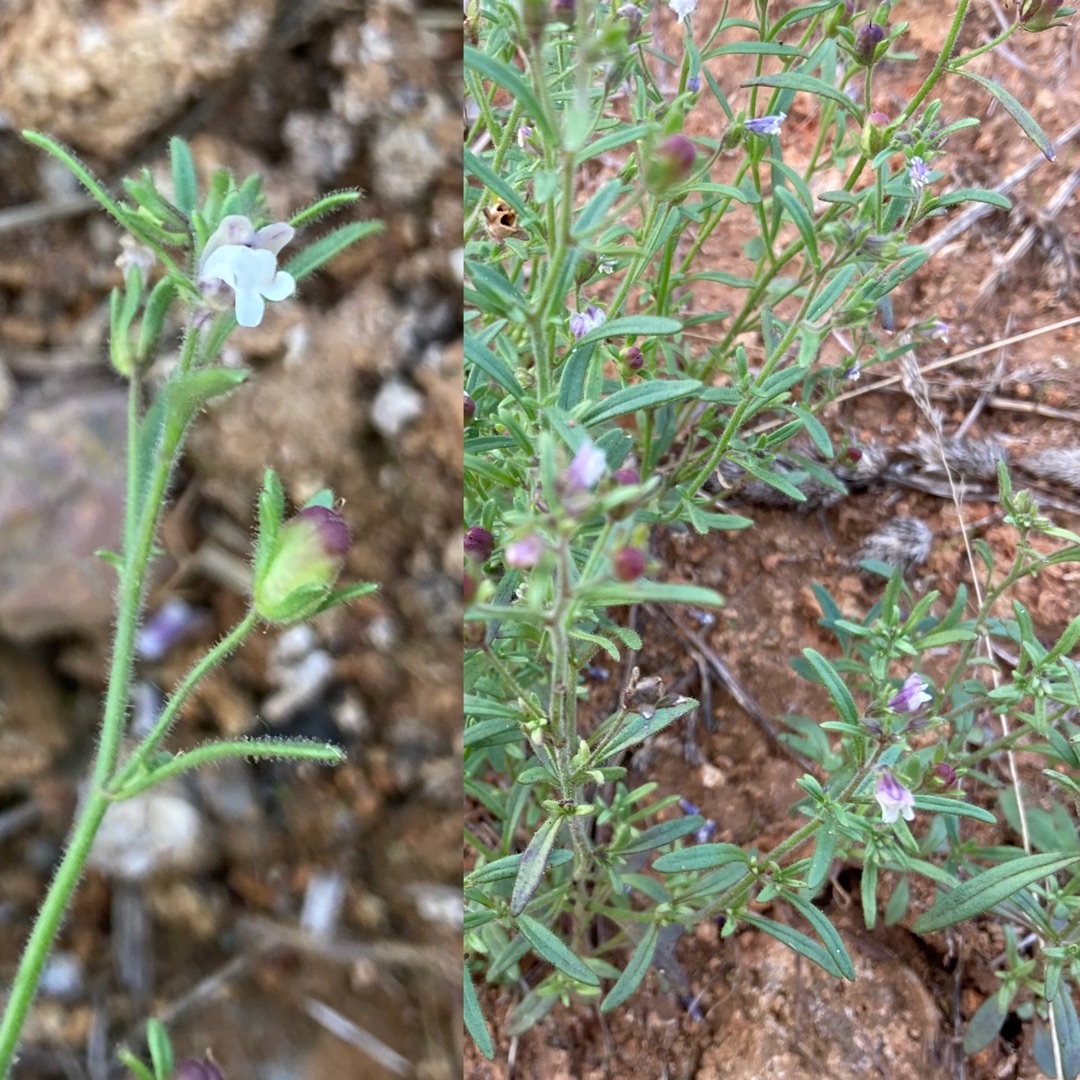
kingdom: Plantae
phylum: Tracheophyta
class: Magnoliopsida
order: Lamiales
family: Plantaginaceae
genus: Chaenorhinum
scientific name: Chaenorhinum minus
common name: Liden torskemund
